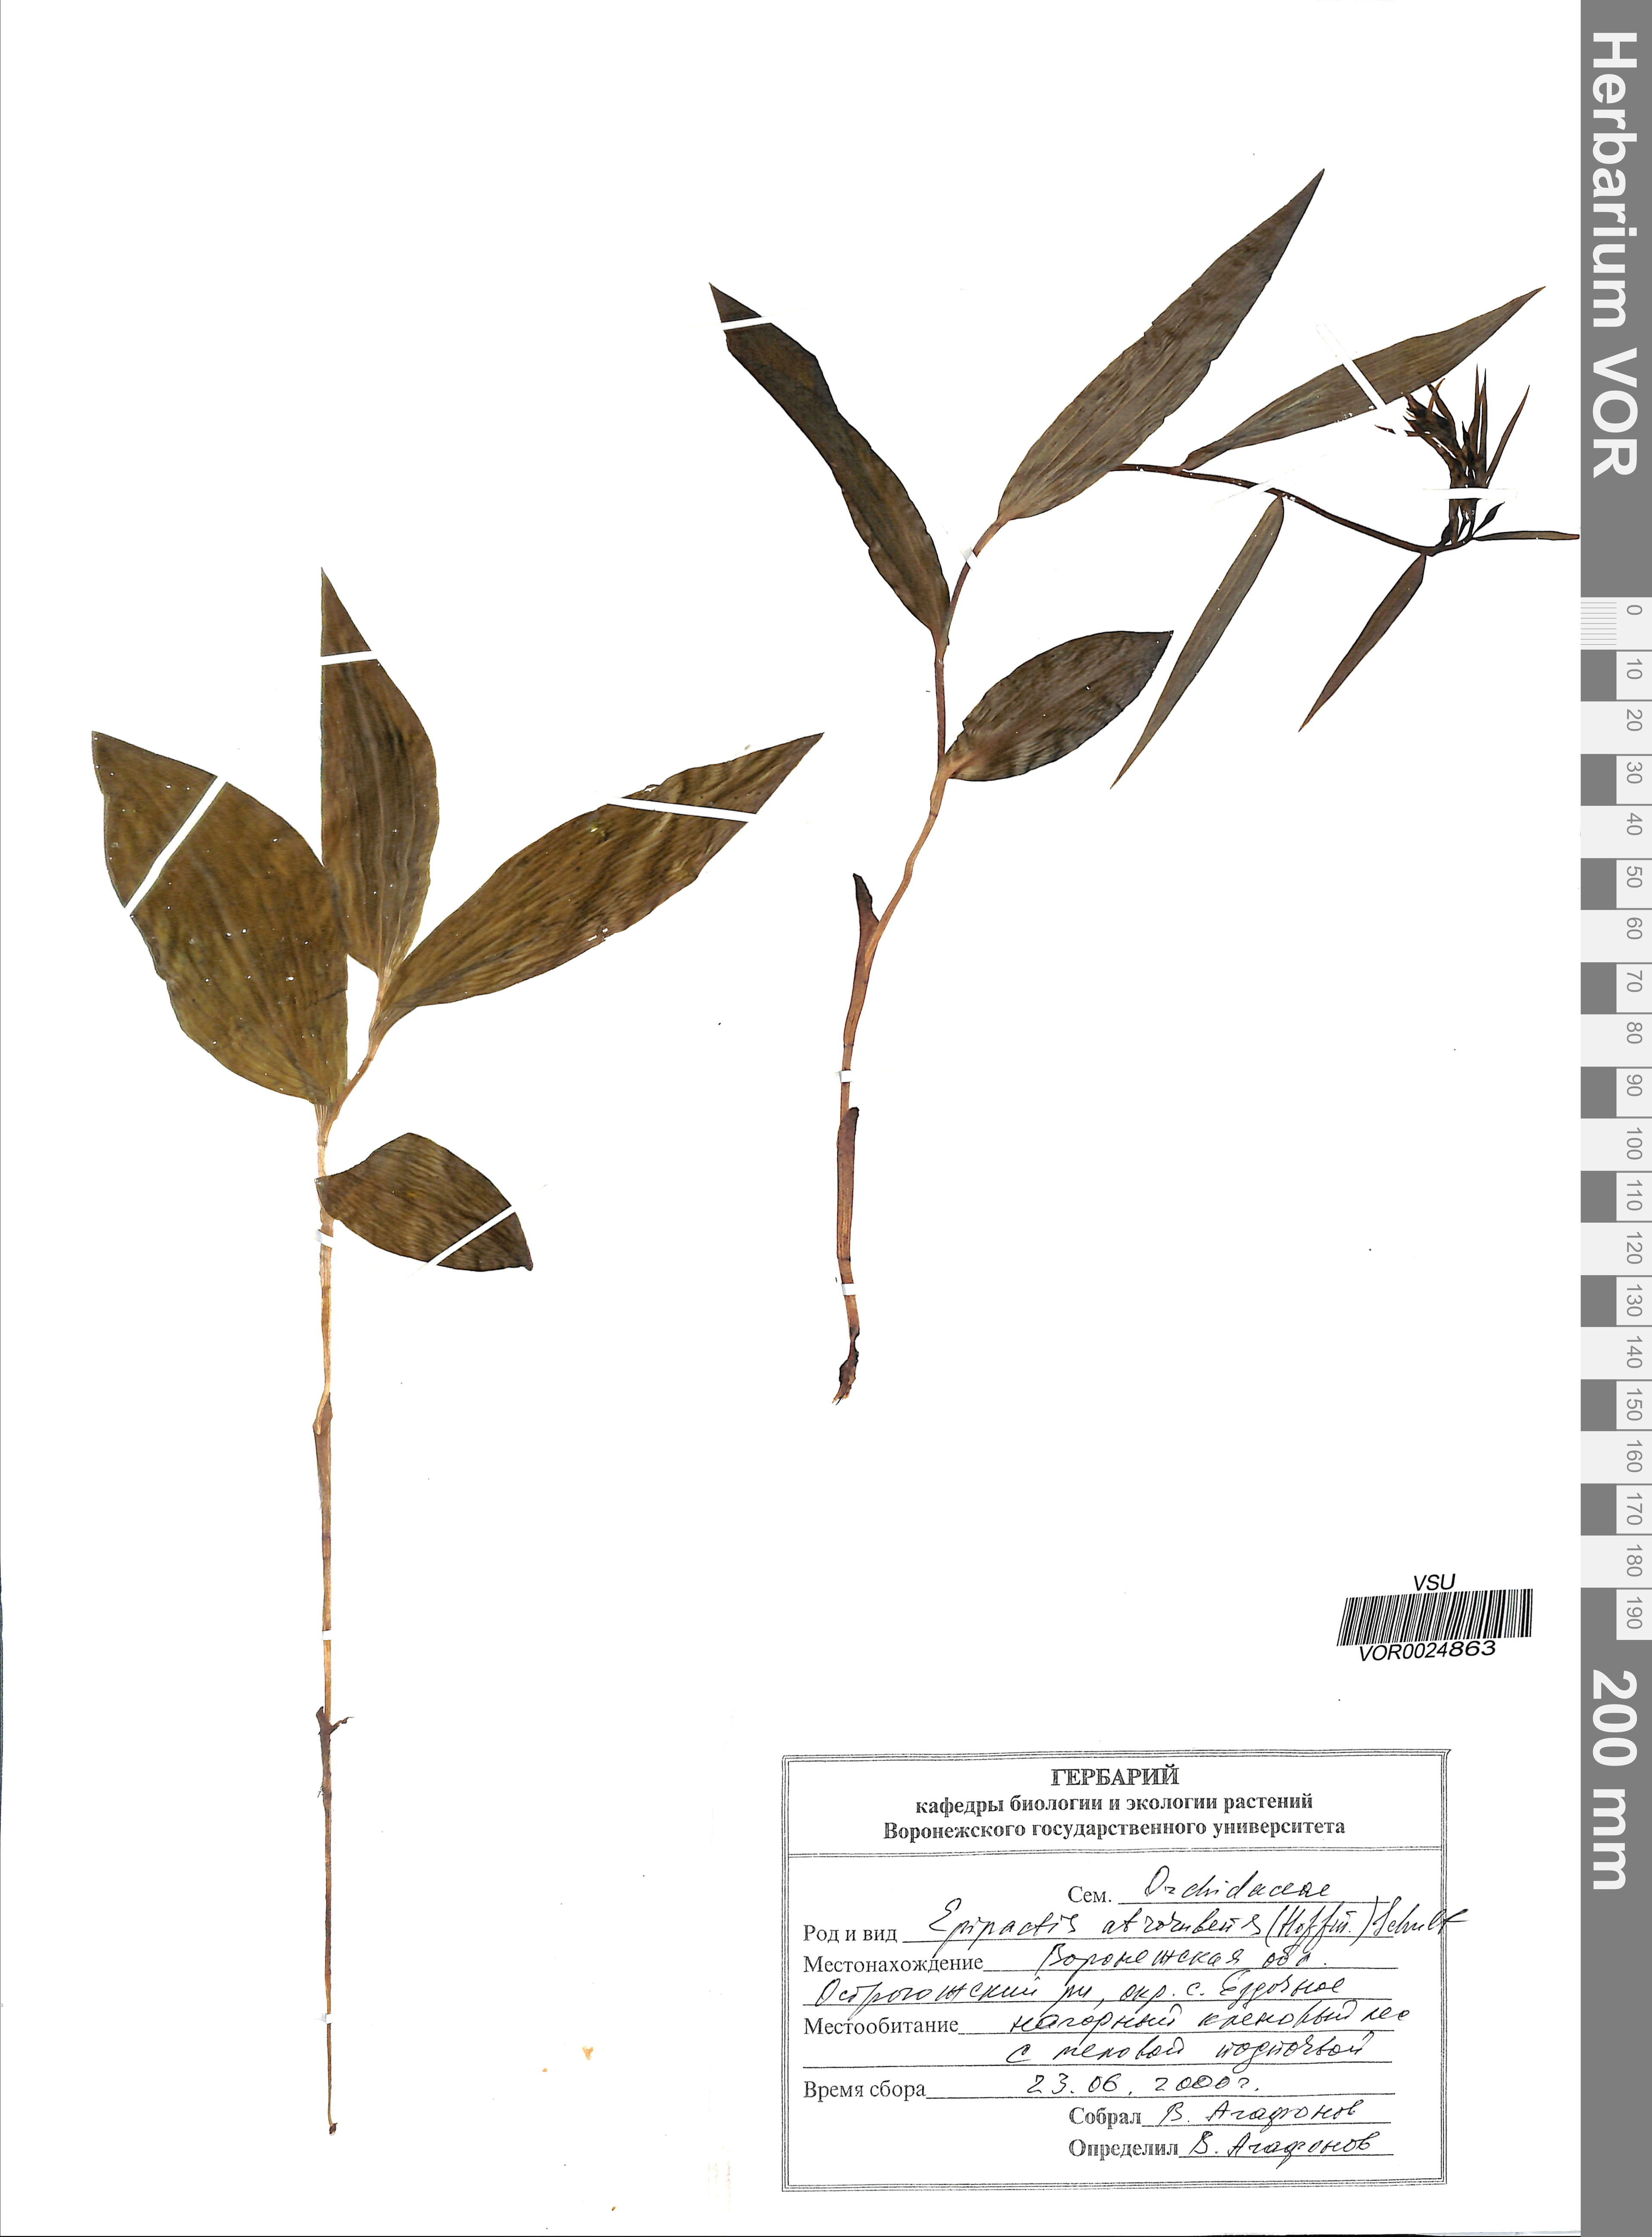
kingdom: Plantae
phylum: Tracheophyta
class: Liliopsida
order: Asparagales
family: Orchidaceae
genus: Epipactis
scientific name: Epipactis atrorubens
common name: Dark-red helleborine
